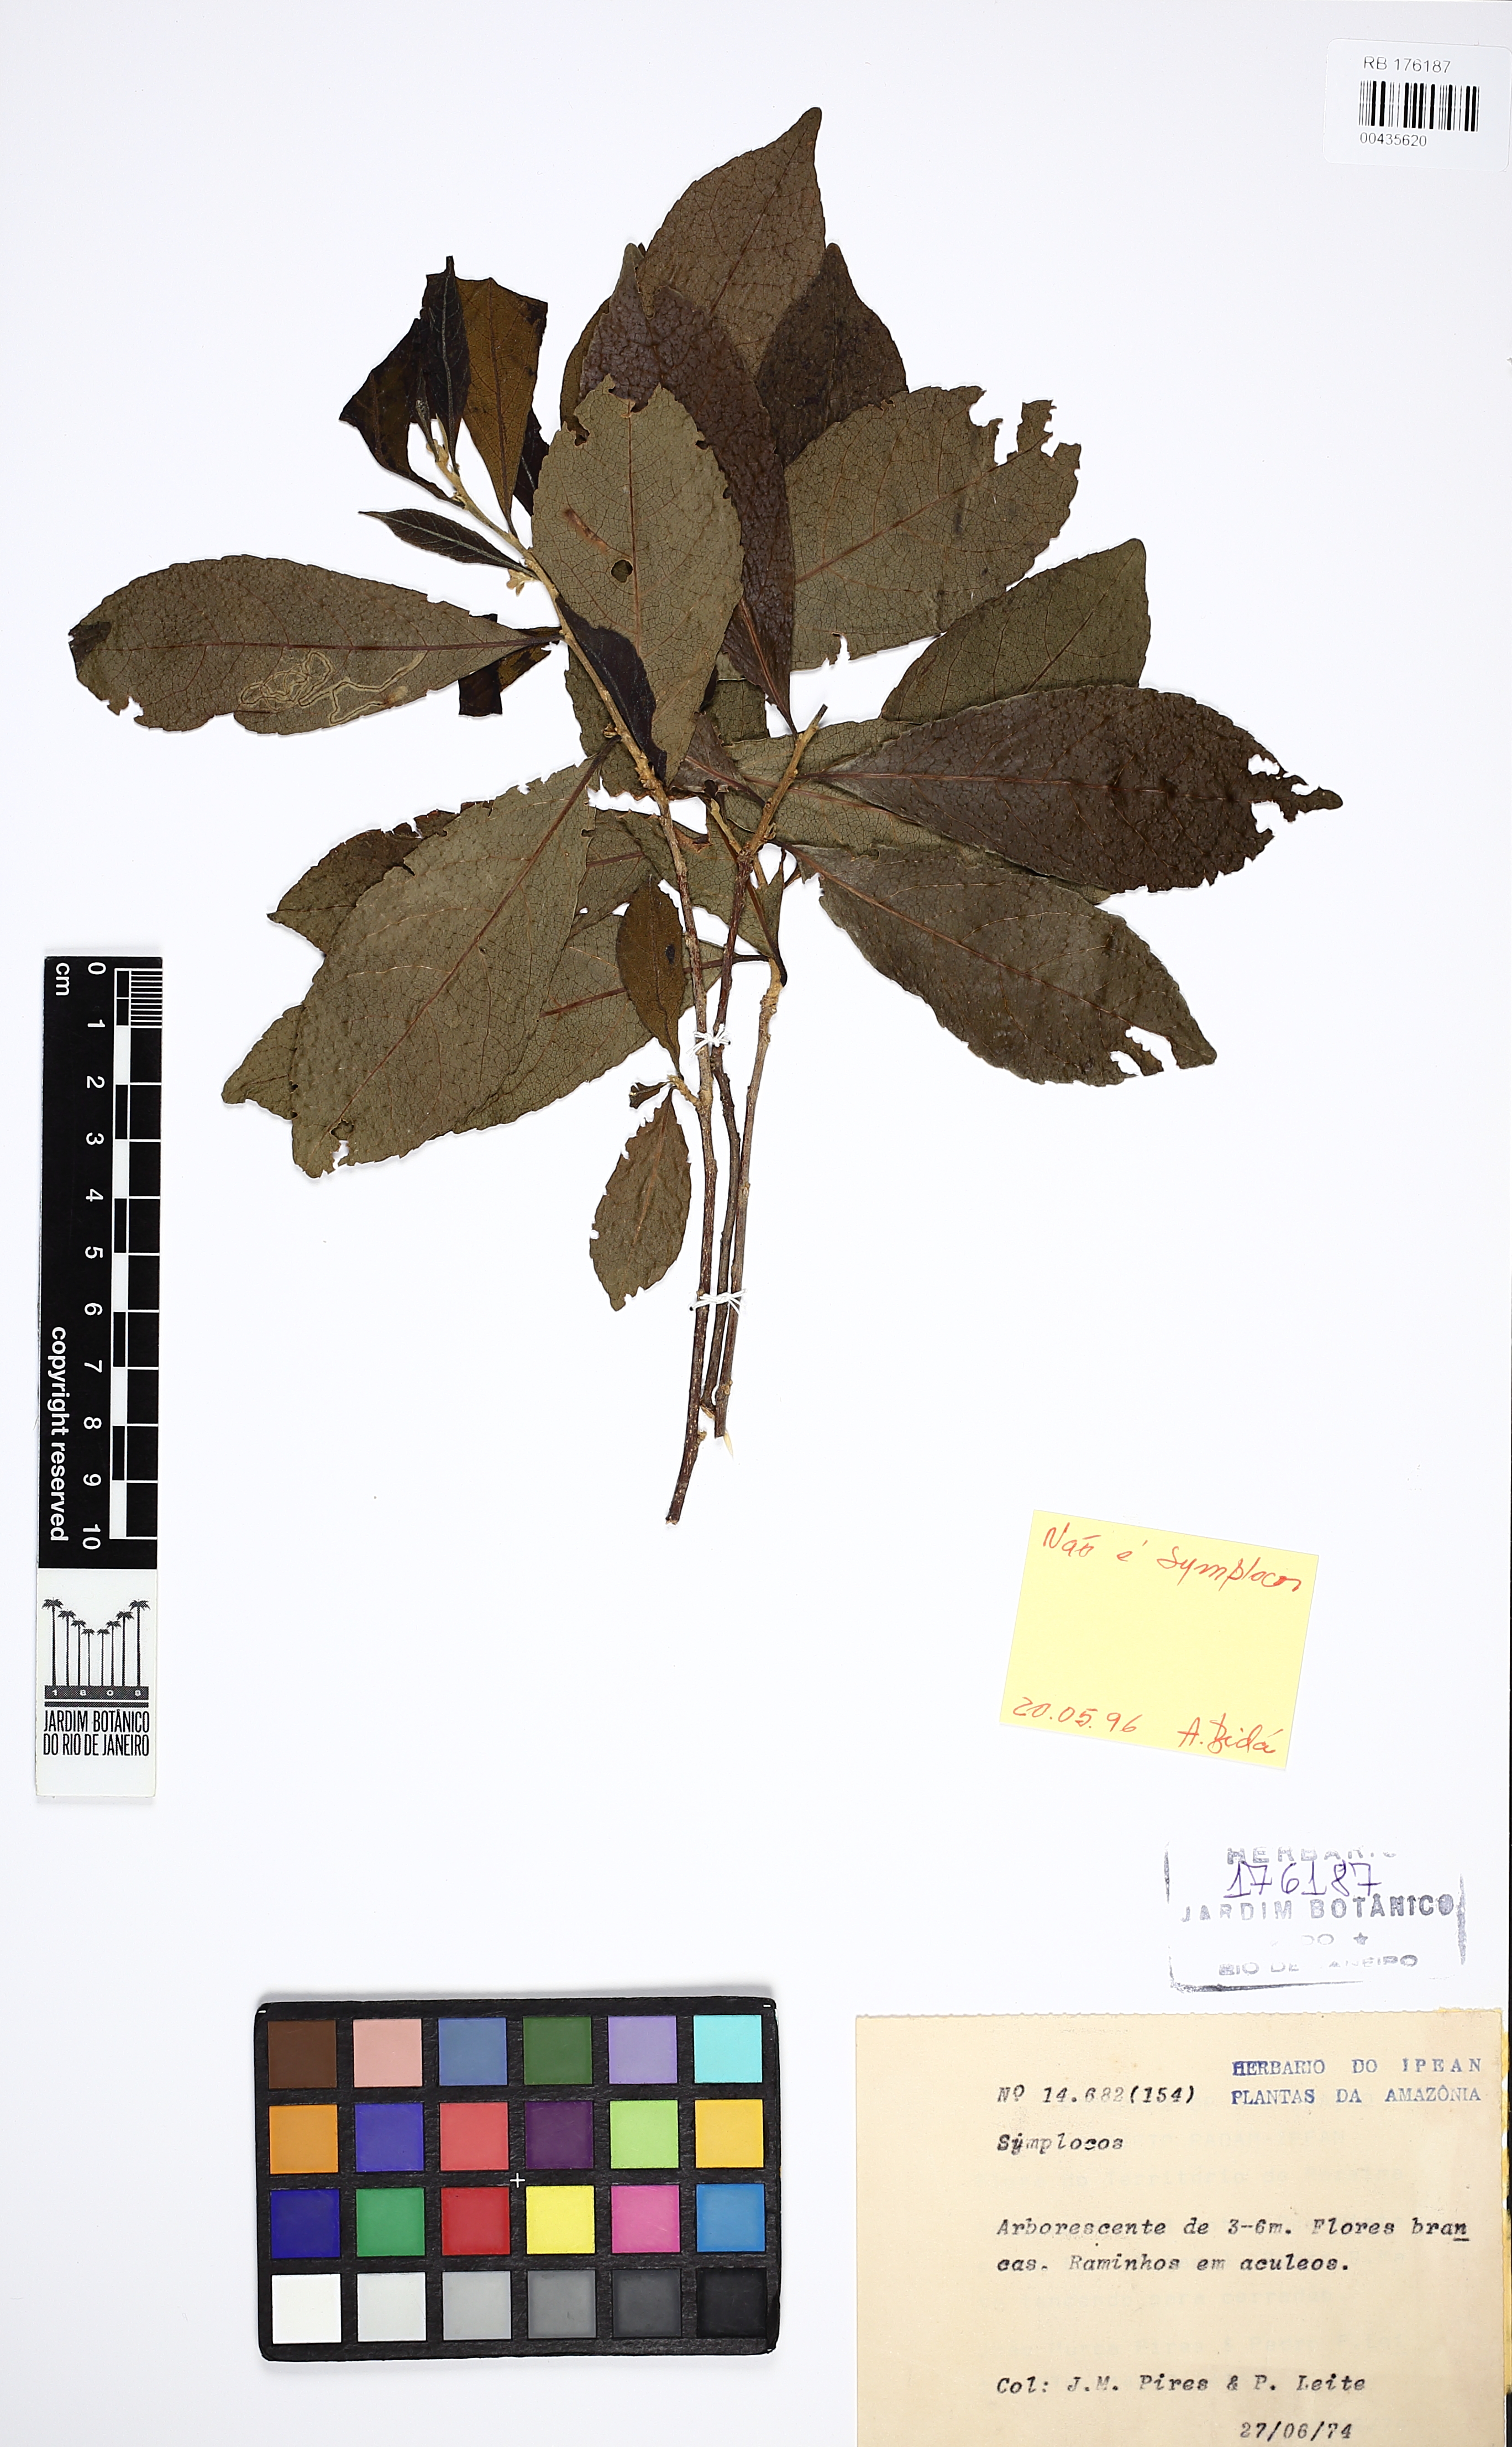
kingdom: Plantae
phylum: Tracheophyta
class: Magnoliopsida
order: Ericales
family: Symplocaceae
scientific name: Symplocaceae
